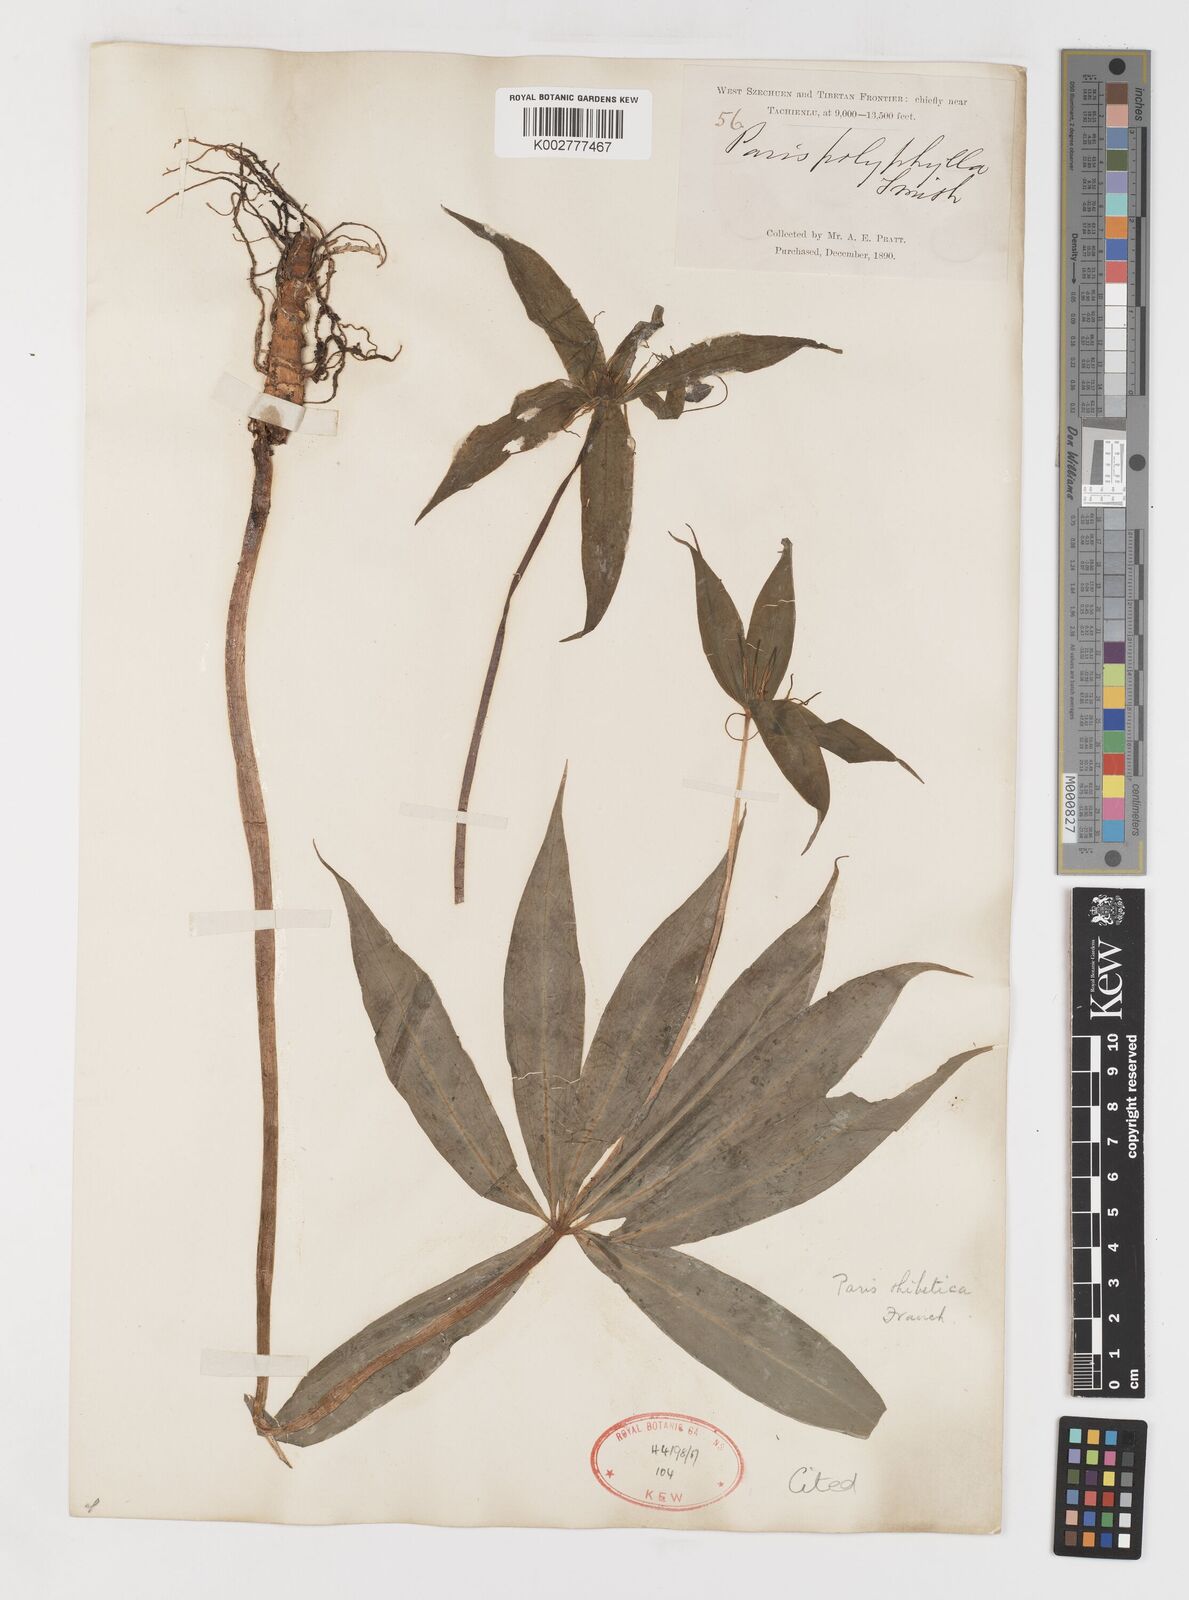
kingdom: Plantae
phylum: Tracheophyta
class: Liliopsida
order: Liliales
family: Melanthiaceae
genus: Paris
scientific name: Paris thibetica
